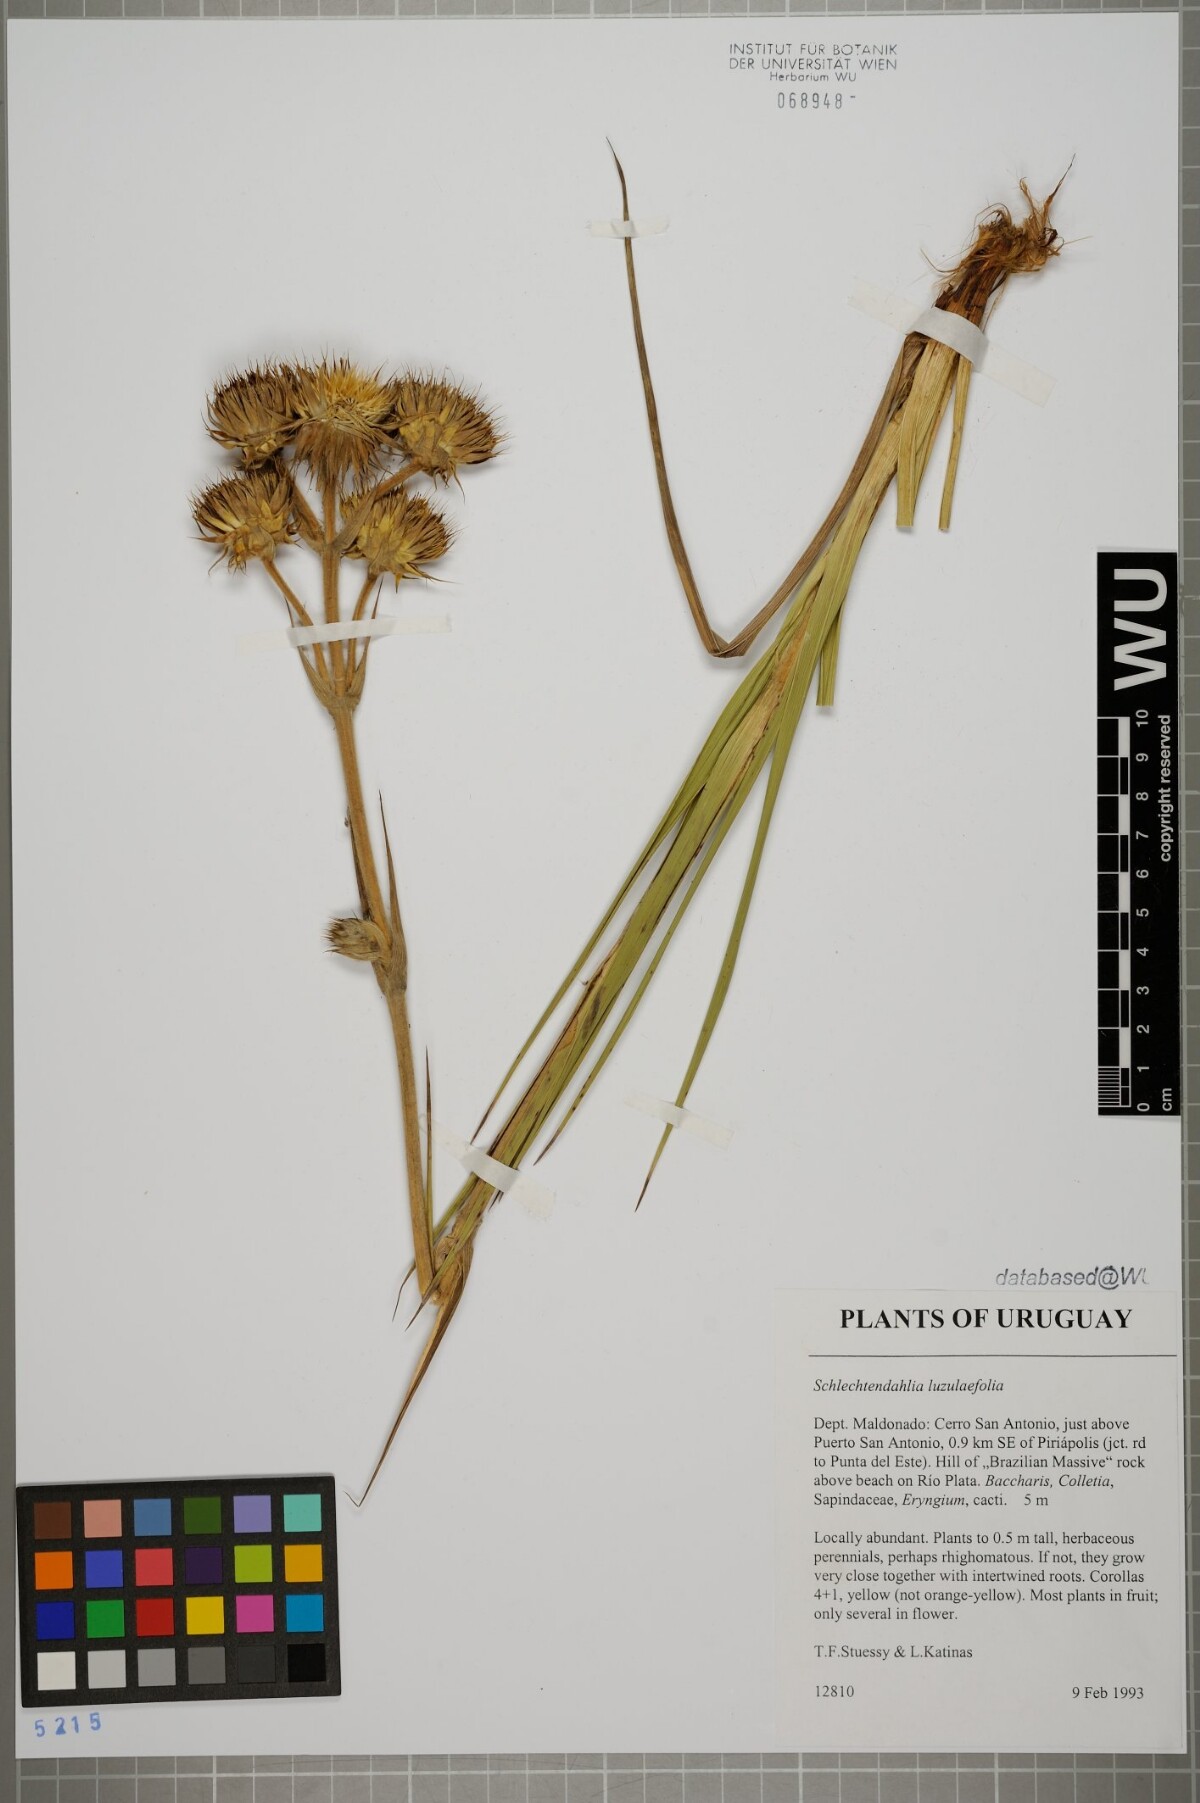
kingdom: Plantae
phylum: Tracheophyta
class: Magnoliopsida
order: Asterales
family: Asteraceae
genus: Schlechtendalia
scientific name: Schlechtendalia luzulifolia
